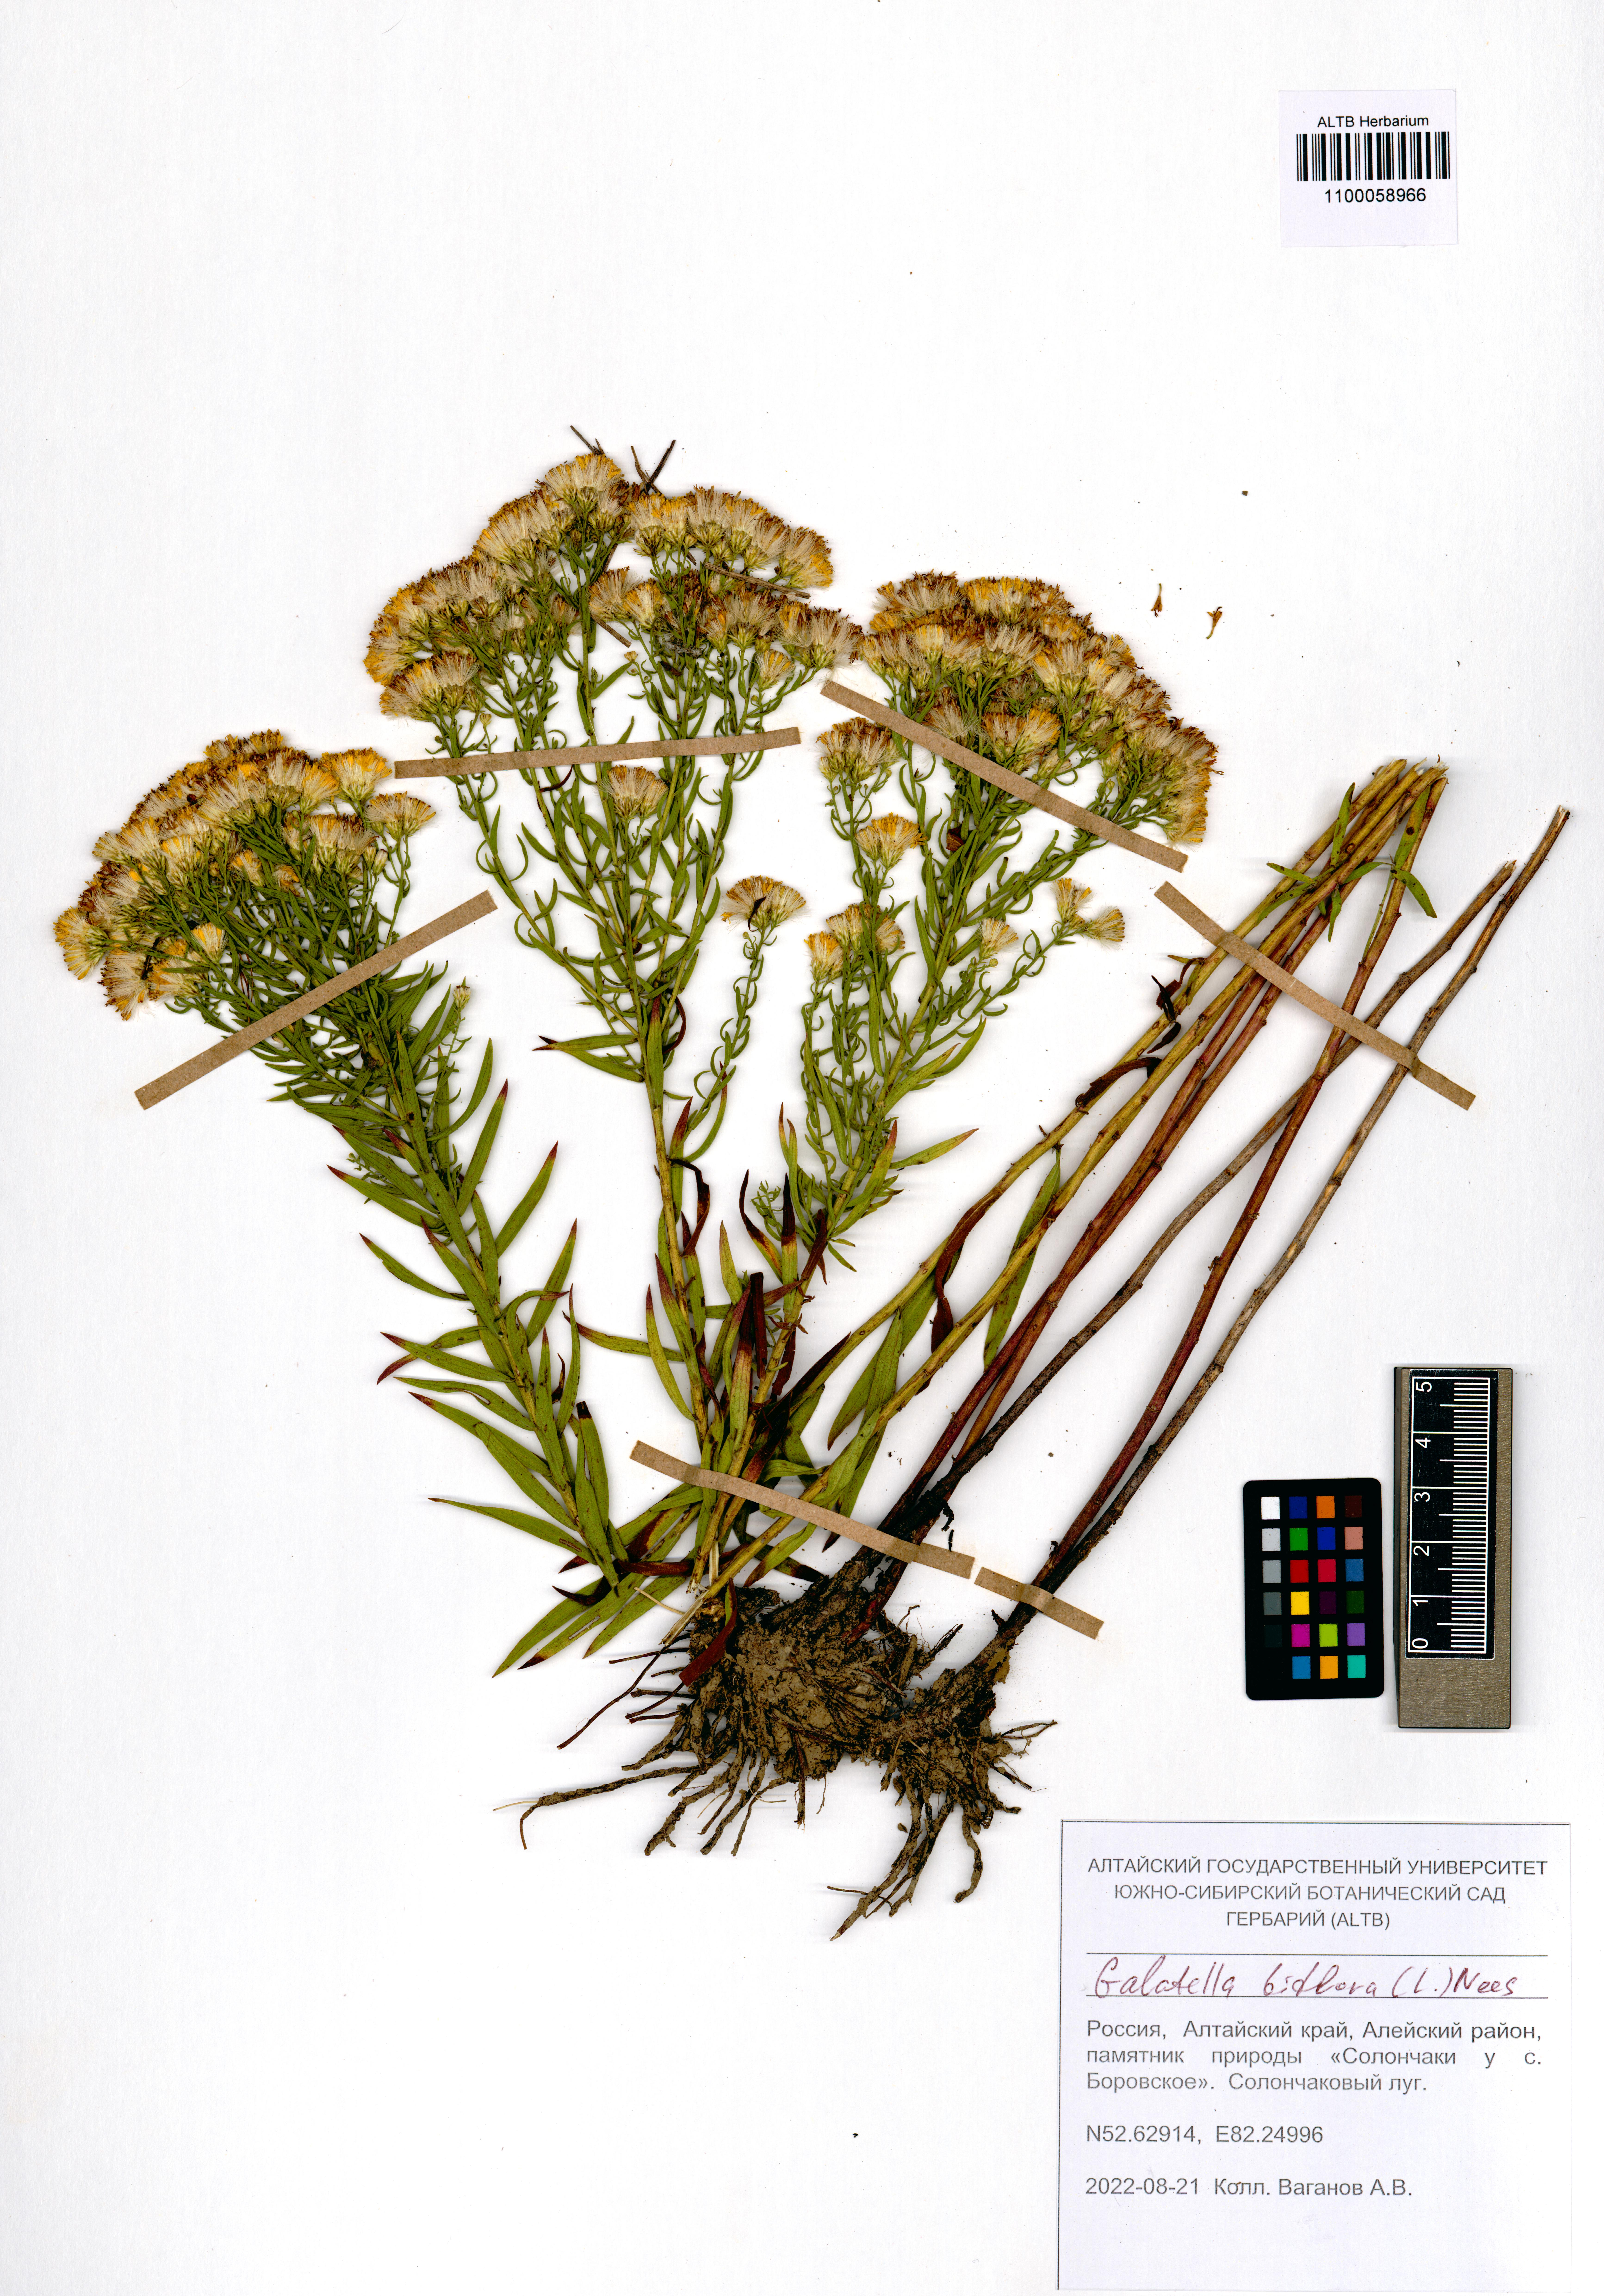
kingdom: Plantae
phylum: Tracheophyta
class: Magnoliopsida
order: Asterales
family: Asteraceae
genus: Galatella
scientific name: Galatella biflora
